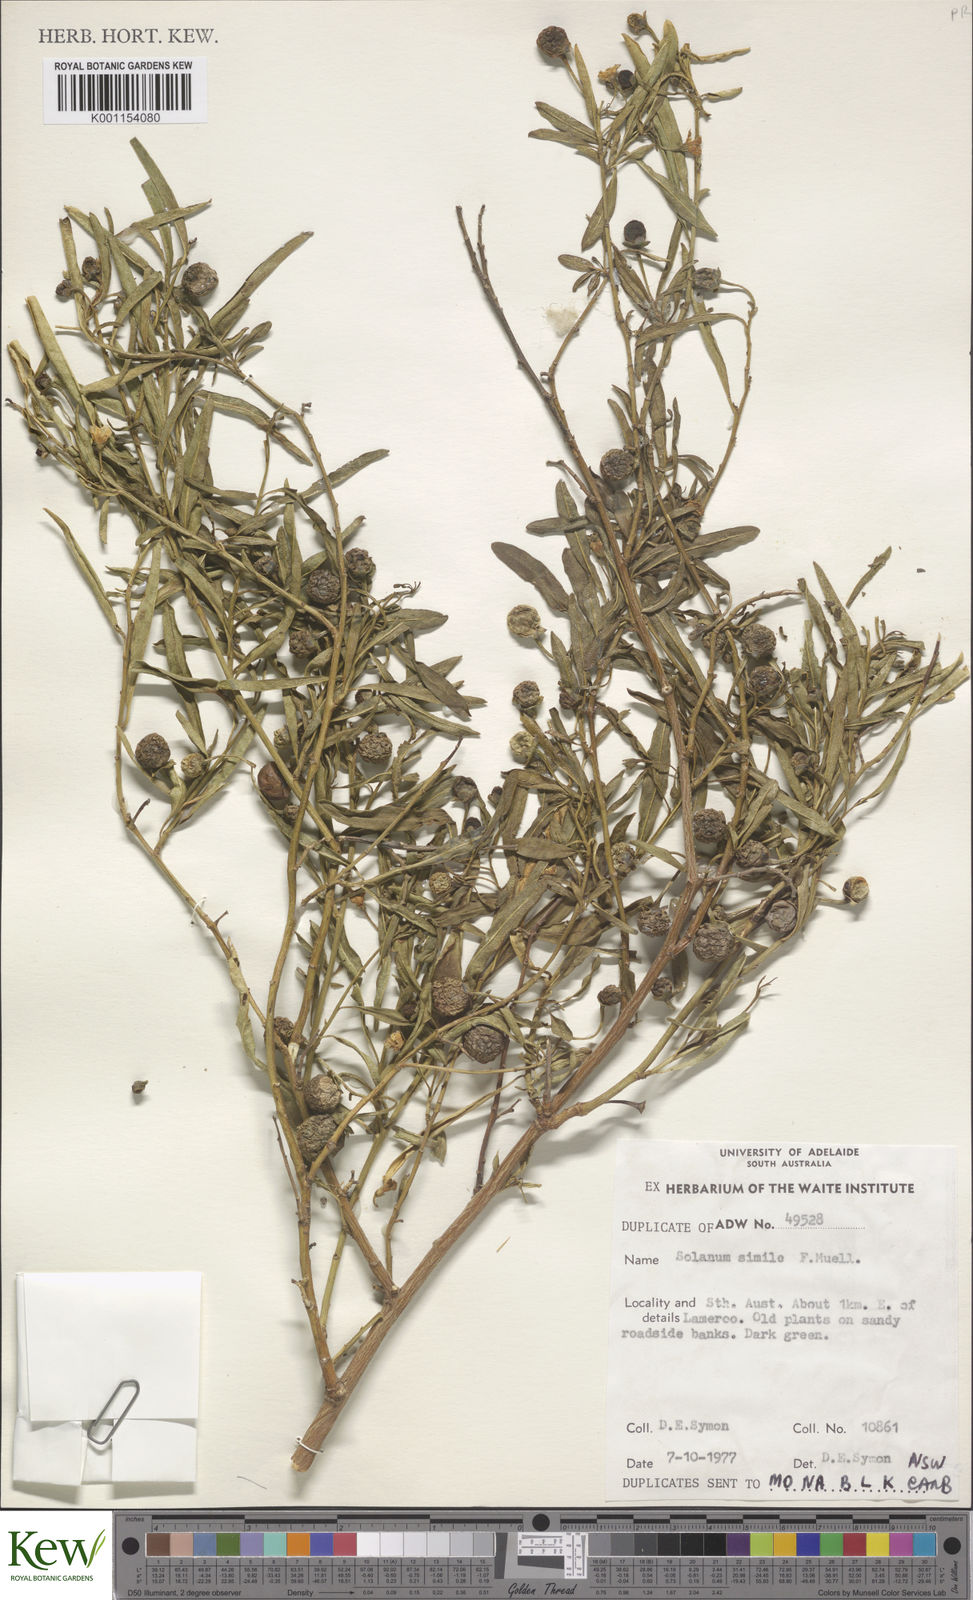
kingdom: Plantae
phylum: Tracheophyta
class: Magnoliopsida
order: Solanales
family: Solanaceae
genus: Solanum
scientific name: Solanum simile
